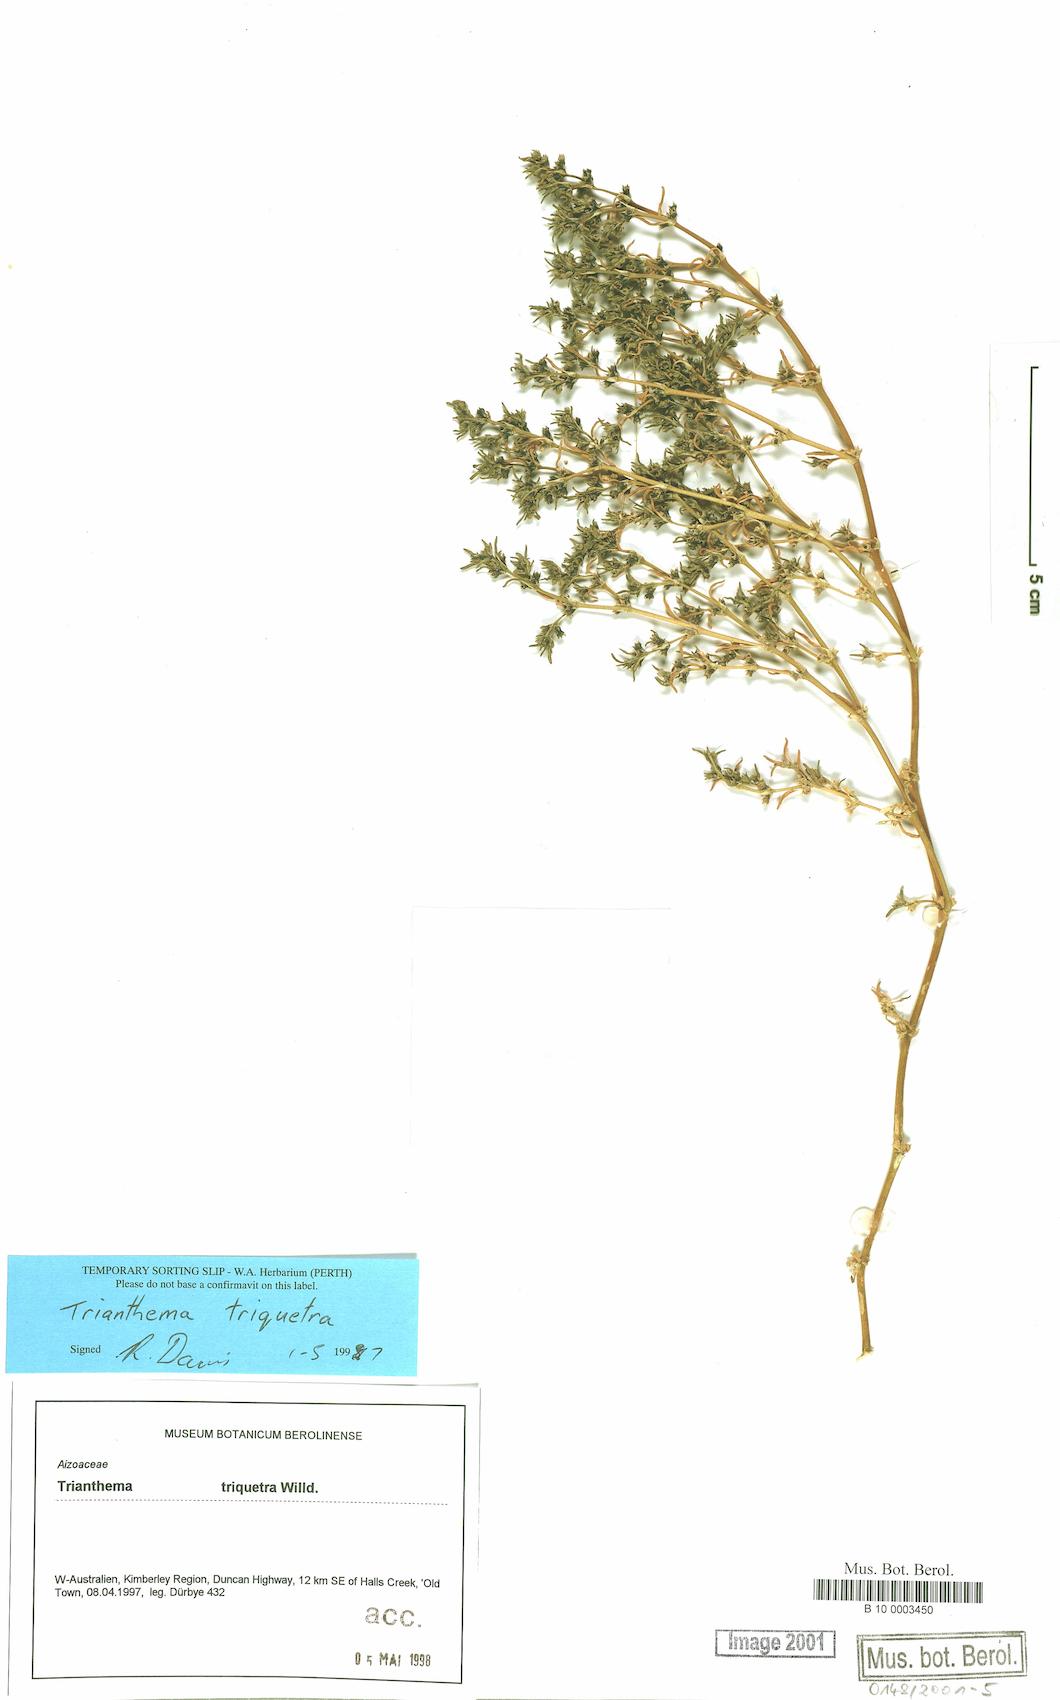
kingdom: Plantae
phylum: Tracheophyta
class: Magnoliopsida
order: Caryophyllales
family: Aizoaceae
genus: Trianthema
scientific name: Trianthema triquetrum
